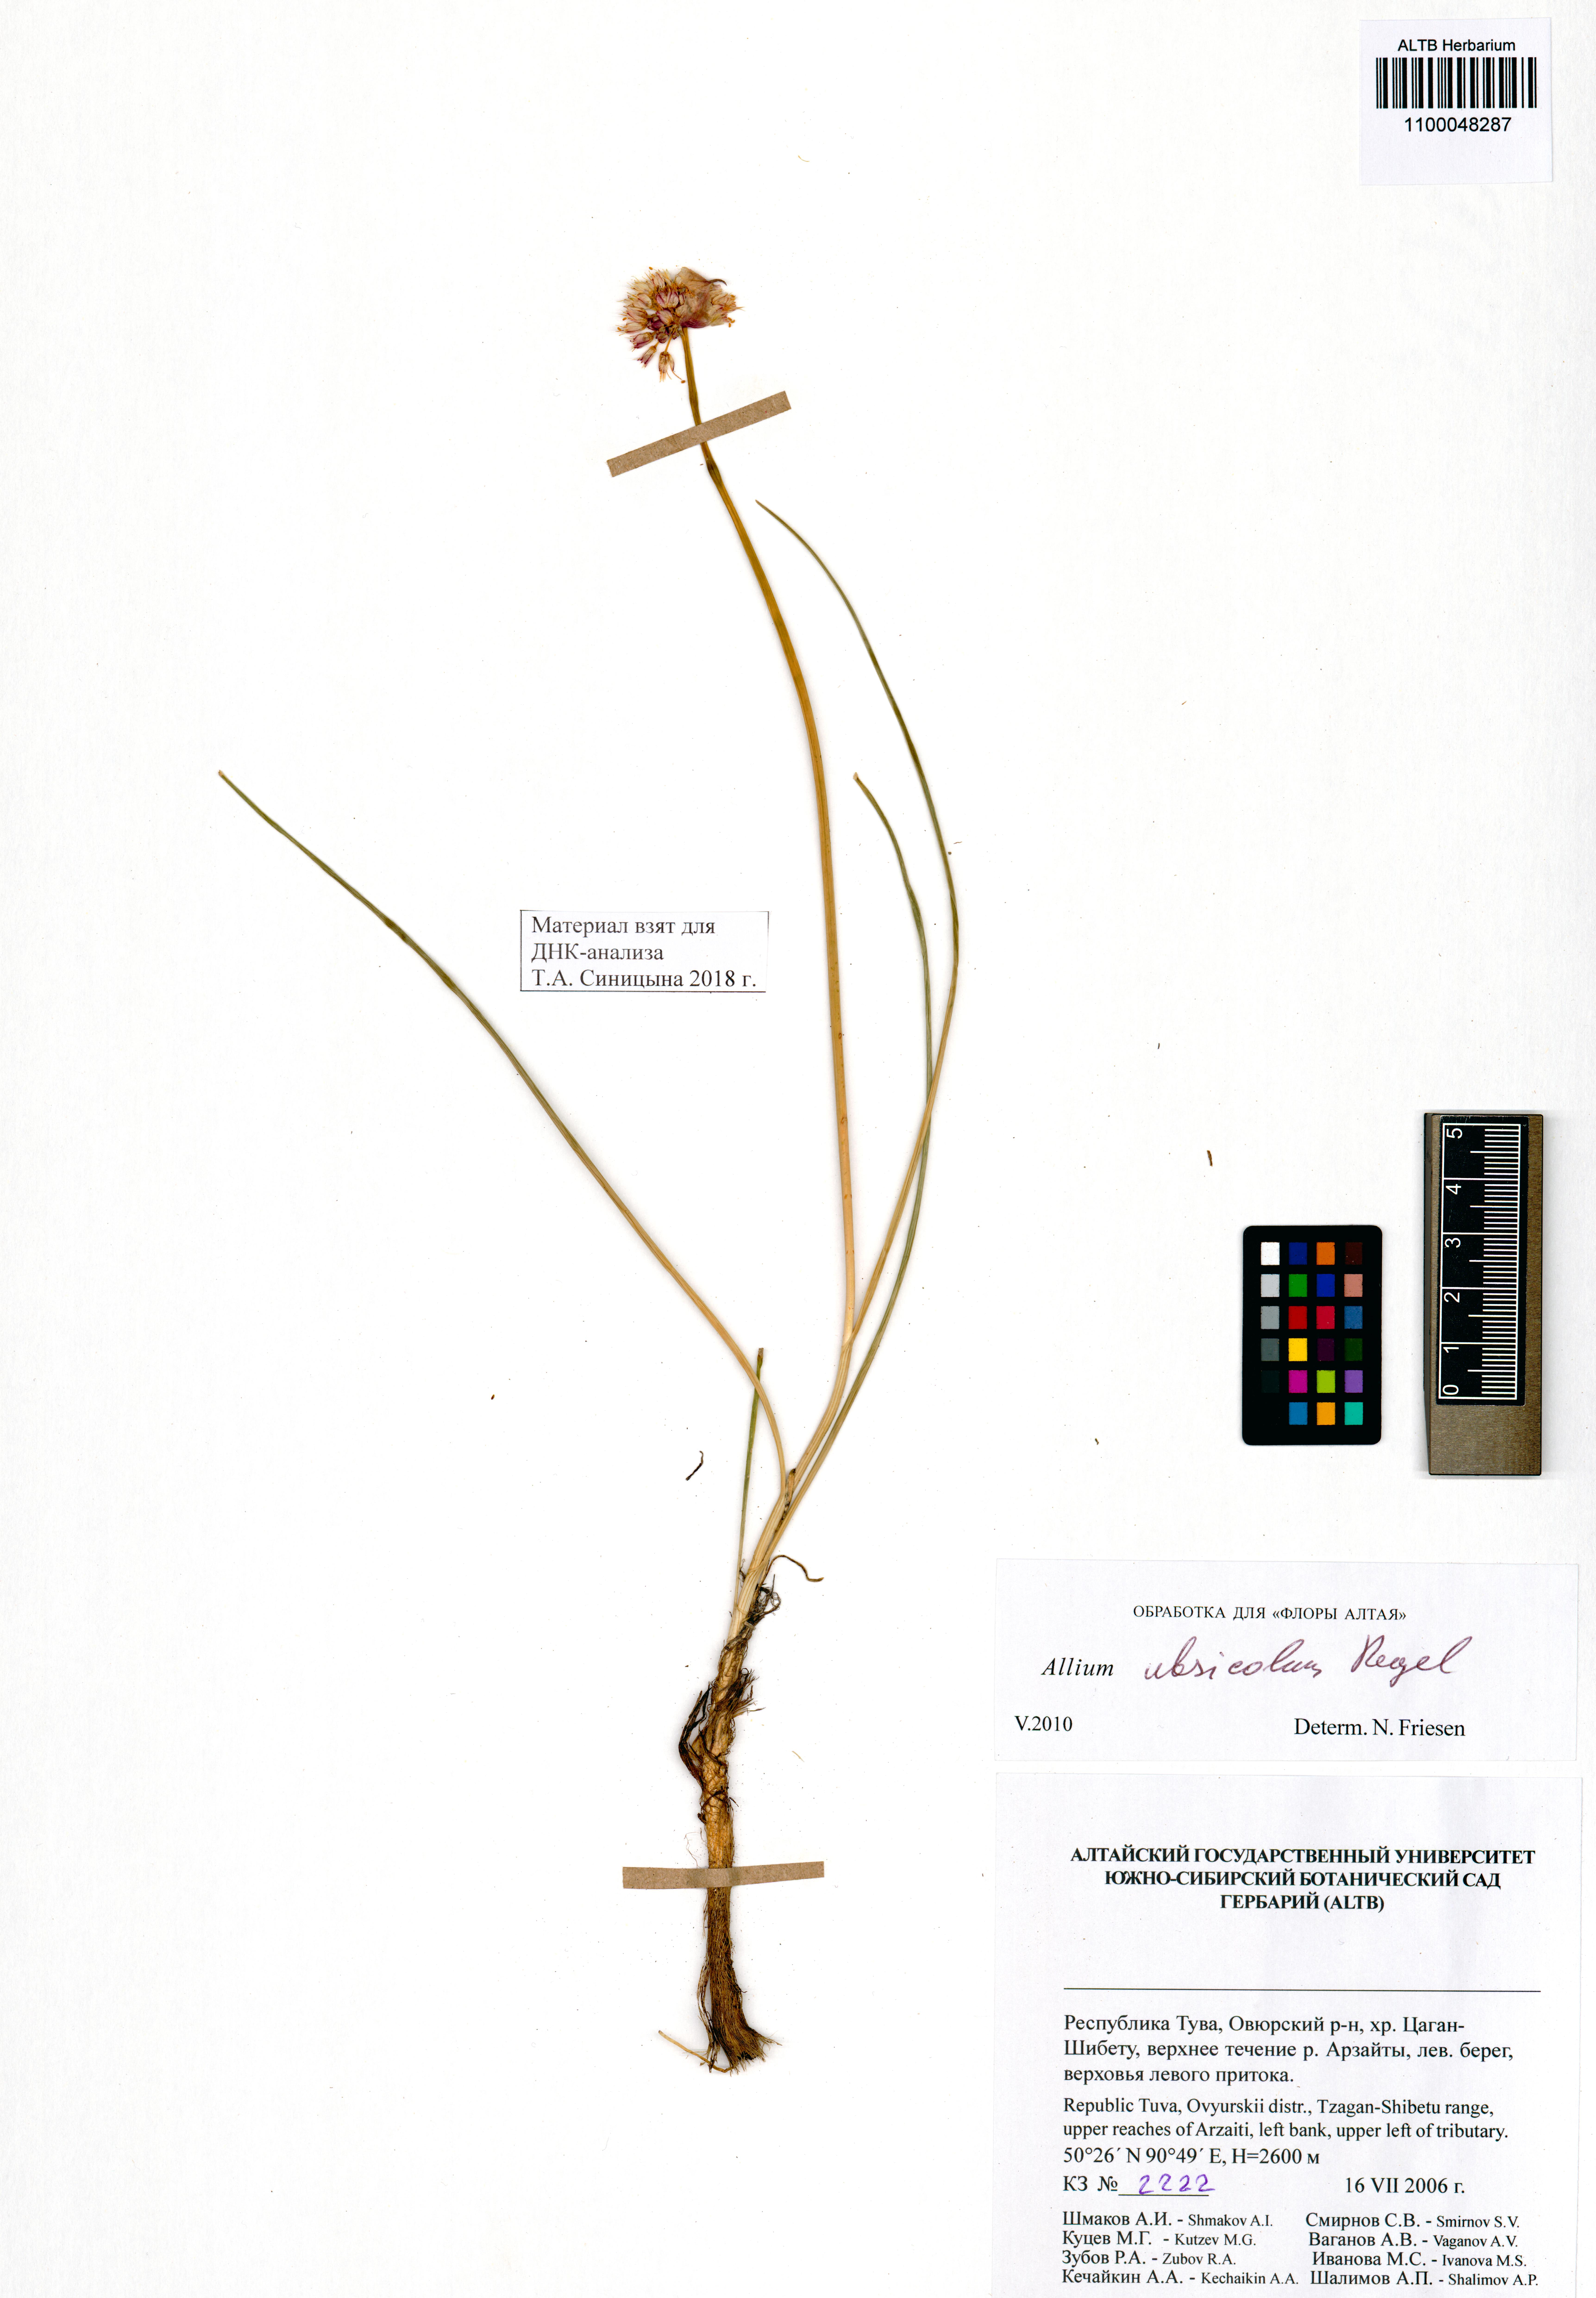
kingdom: Plantae
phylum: Tracheophyta
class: Liliopsida
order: Asparagales
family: Amaryllidaceae
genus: Allium
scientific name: Allium ubsicola
